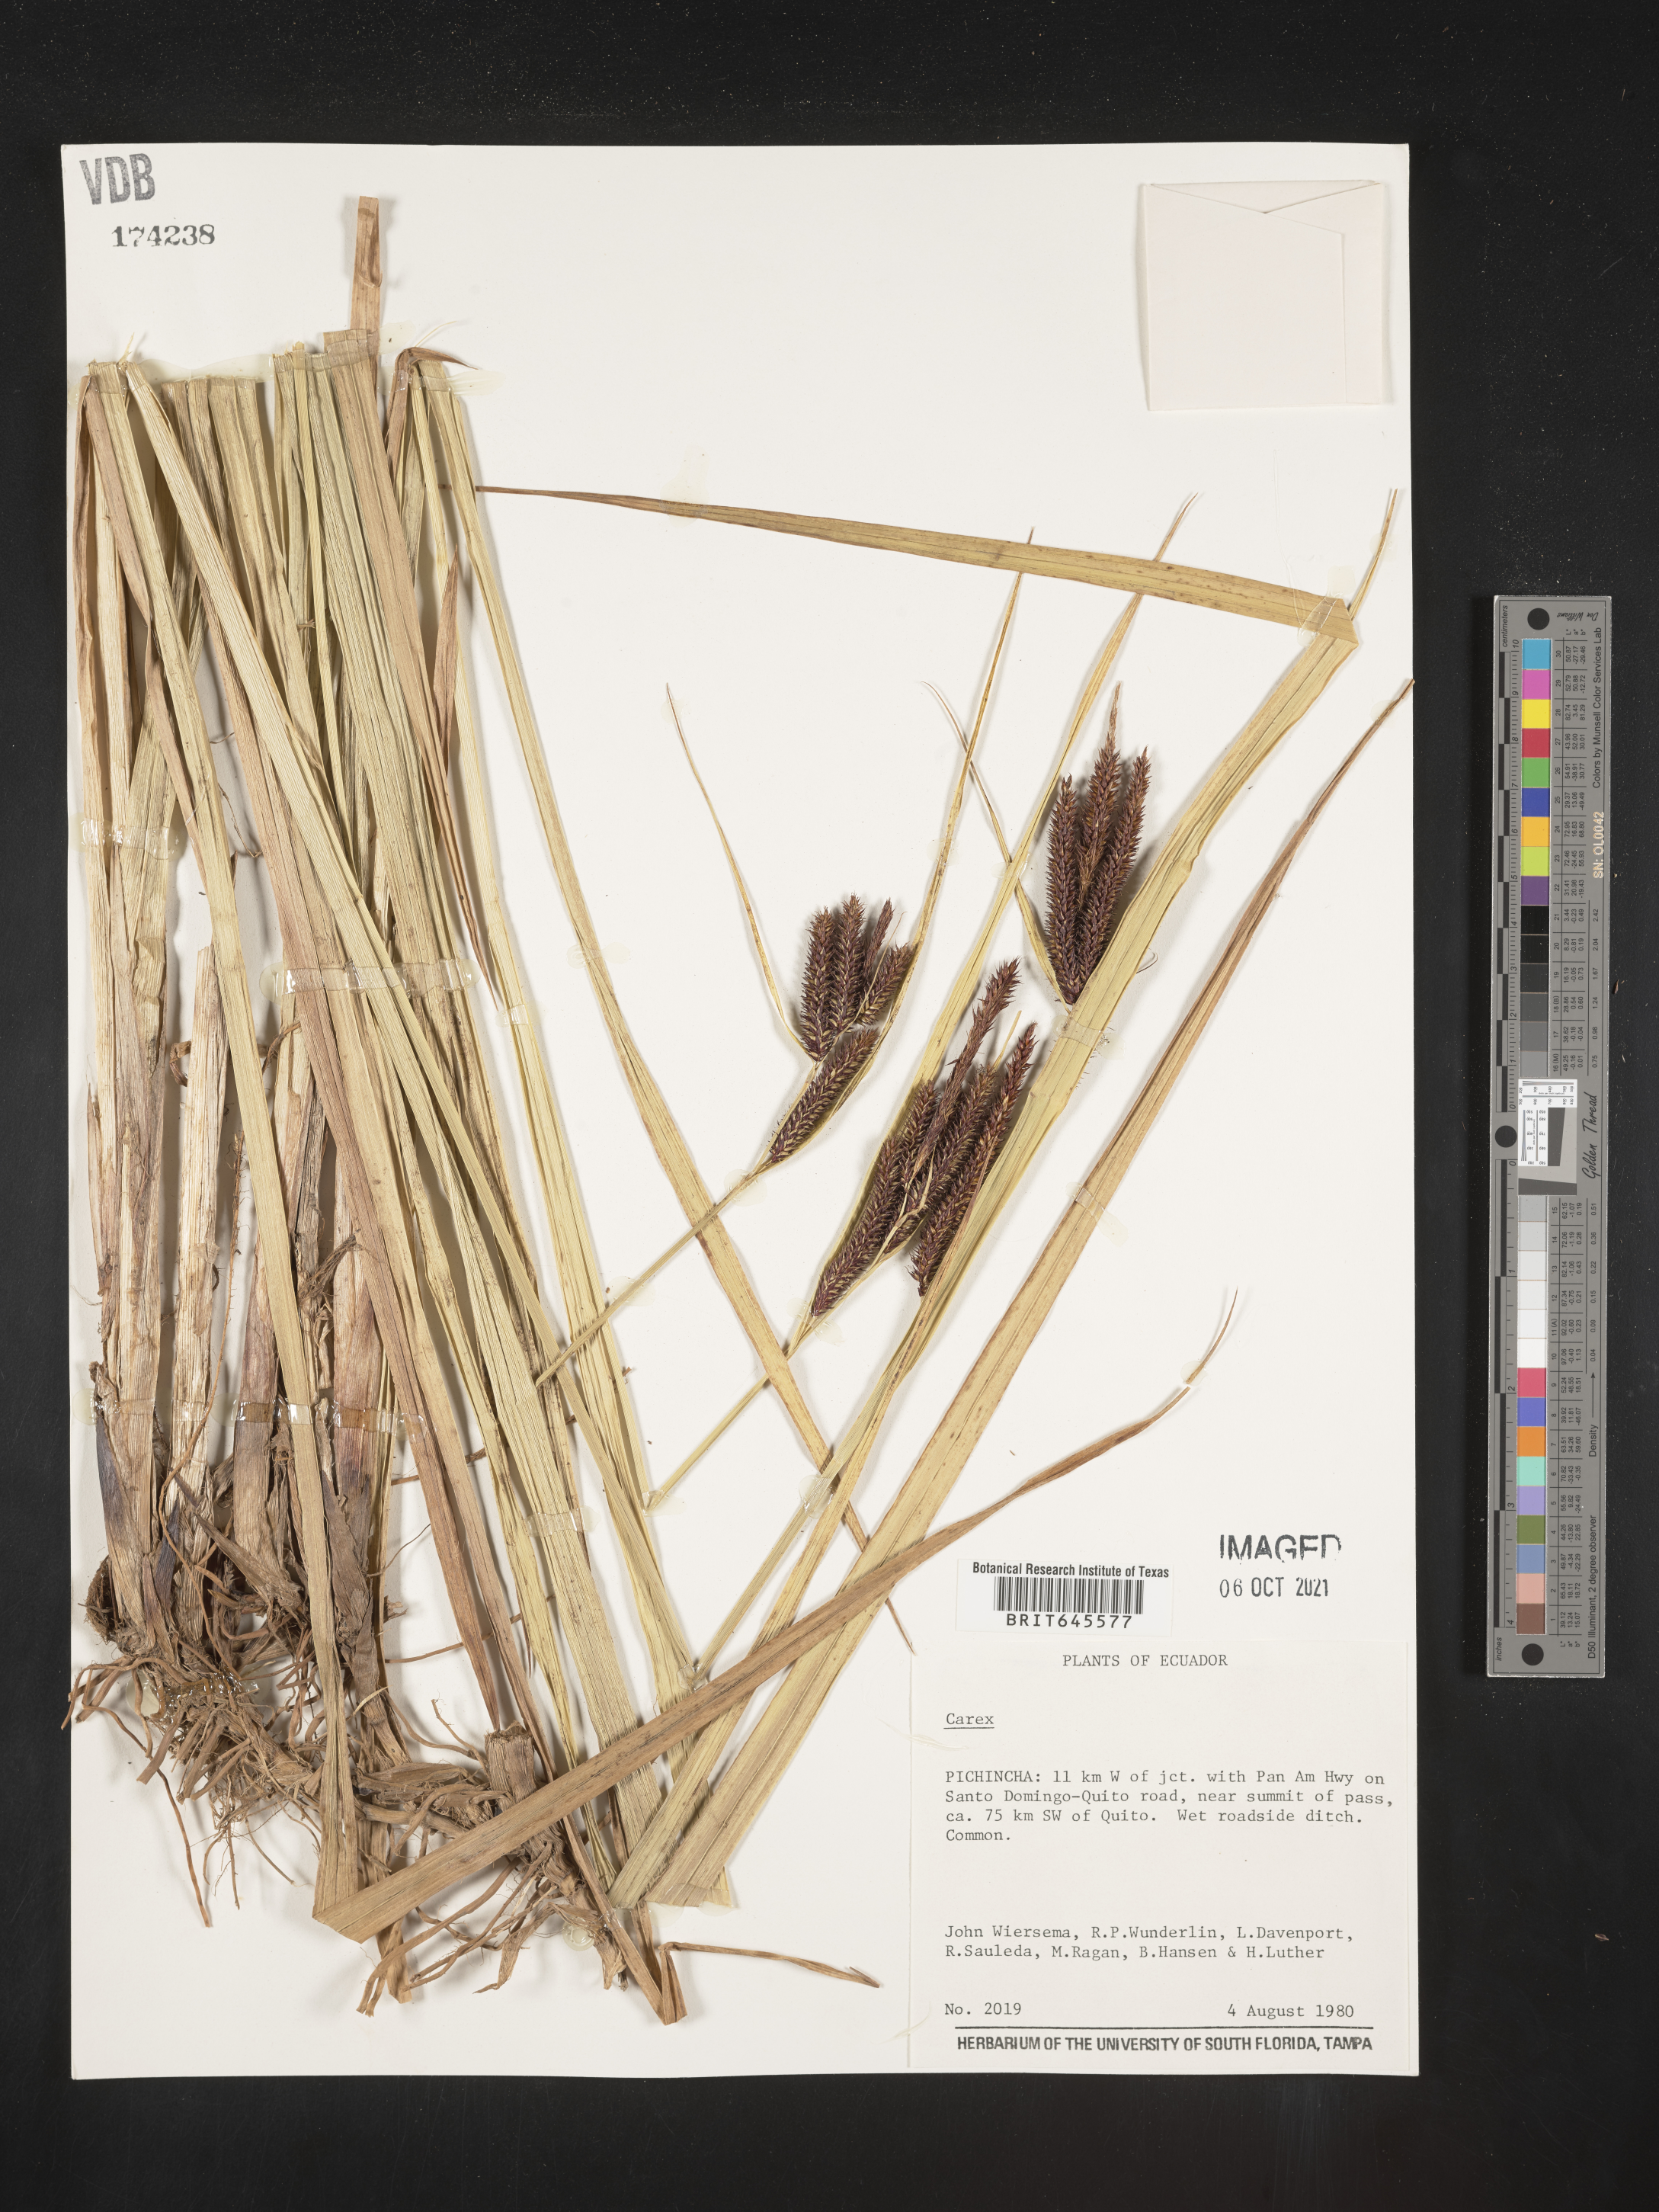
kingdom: Plantae
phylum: Tracheophyta
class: Liliopsida
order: Poales
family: Cyperaceae
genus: Carex
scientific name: Carex
